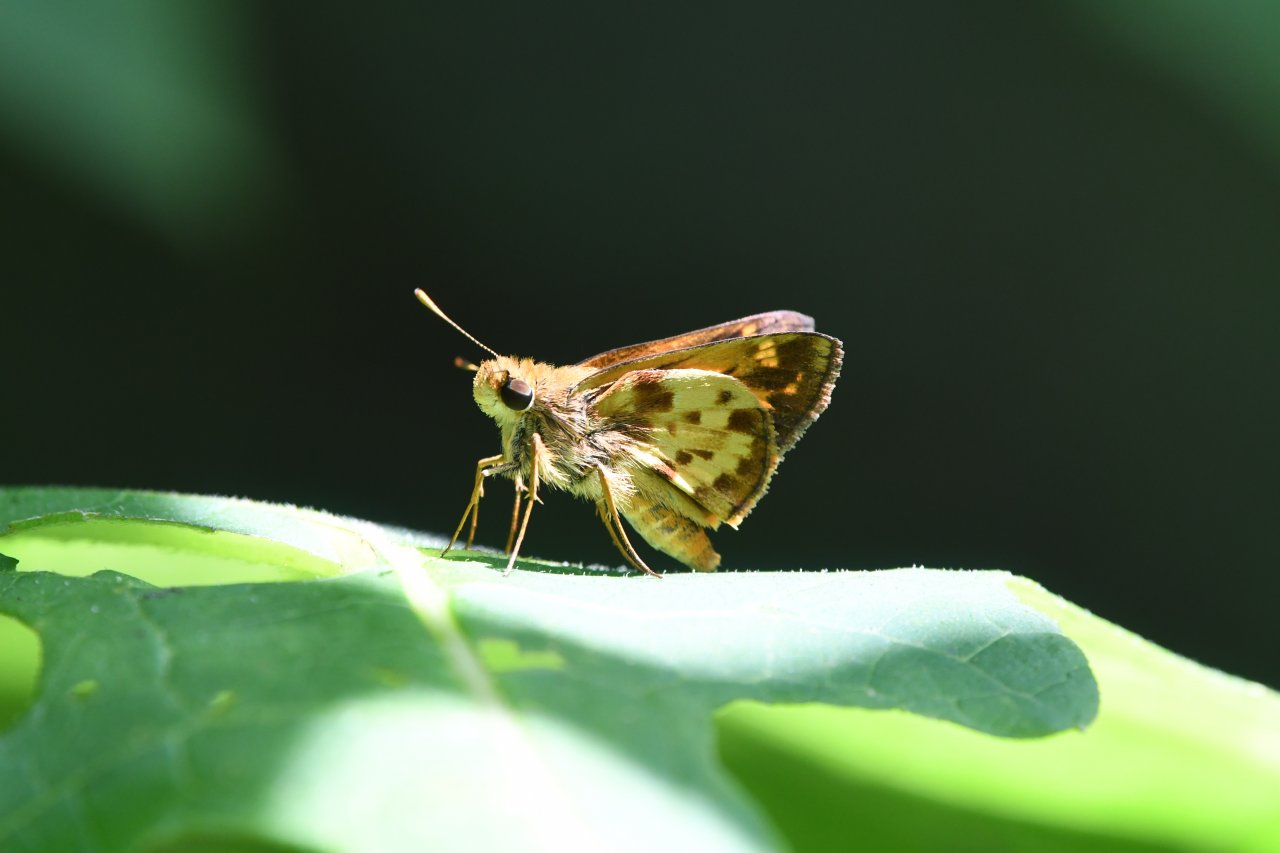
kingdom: Animalia
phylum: Arthropoda
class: Insecta
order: Lepidoptera
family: Hesperiidae
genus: Lon
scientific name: Lon zabulon
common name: Zabulon Skipper
